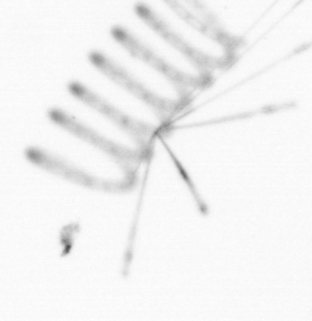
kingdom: Chromista
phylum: Ochrophyta
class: Bacillariophyceae
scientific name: Bacillariophyceae
